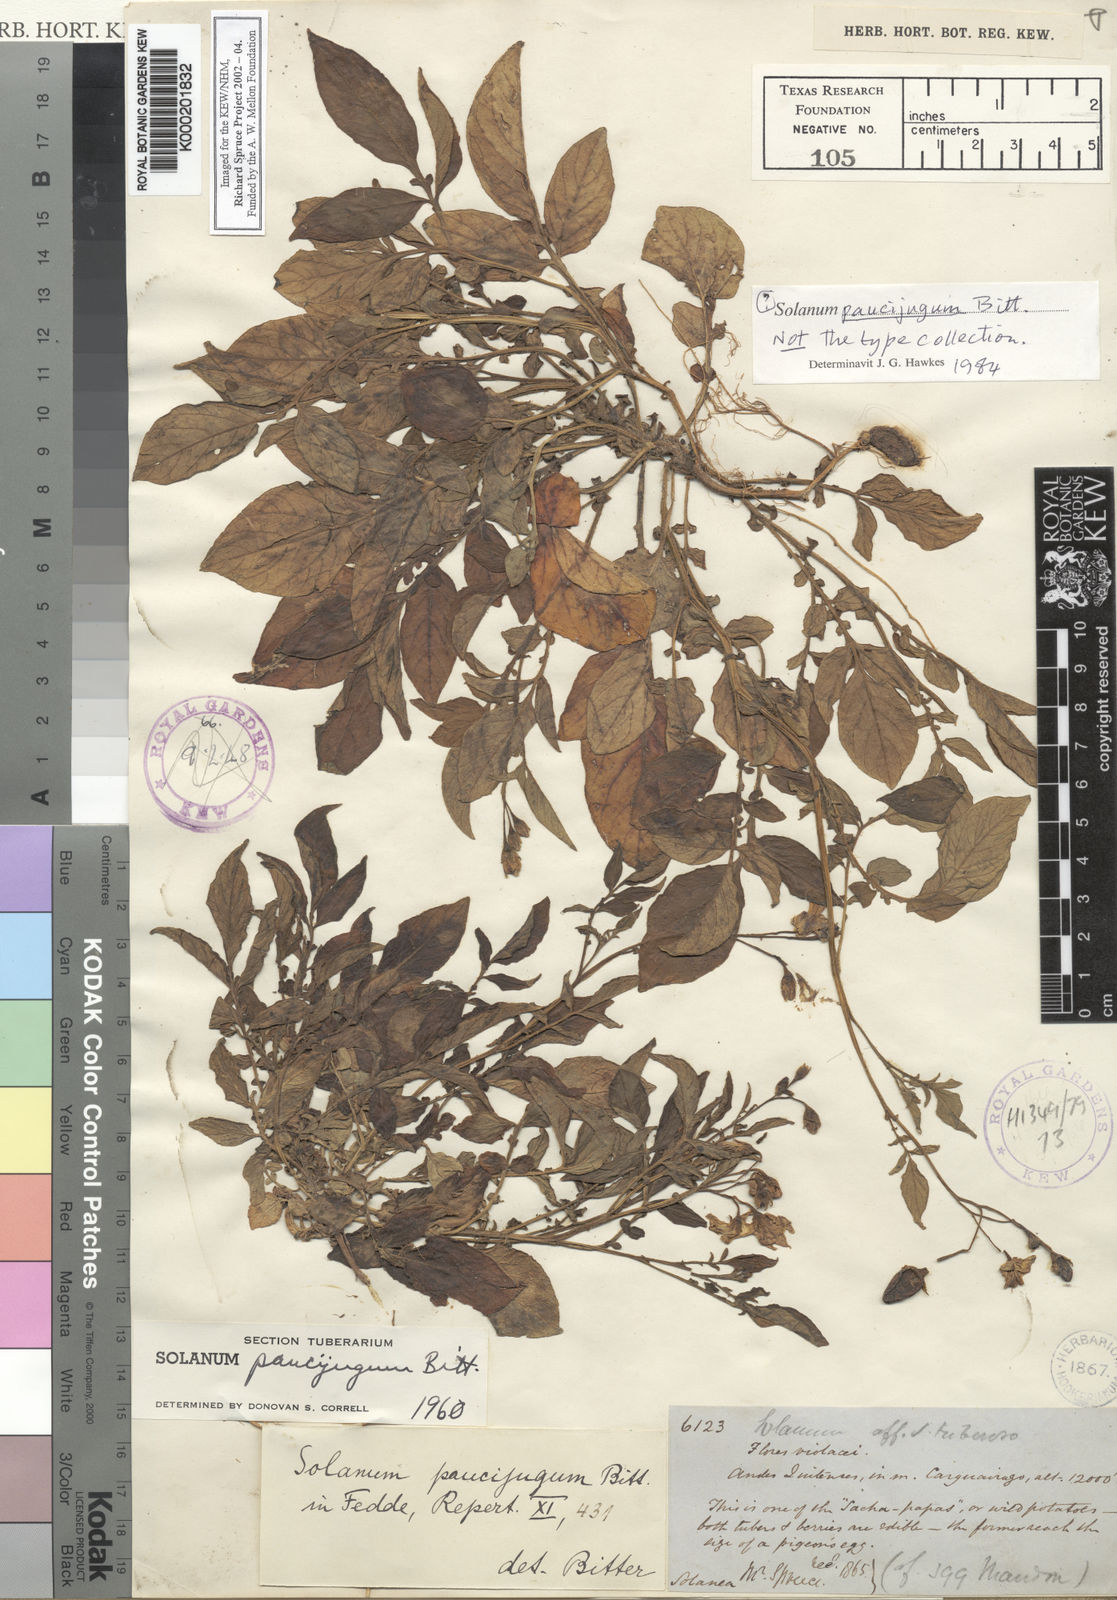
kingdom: Plantae
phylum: Tracheophyta
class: Magnoliopsida
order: Solanales
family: Solanaceae
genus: Solanum
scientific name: Solanum andreanum
